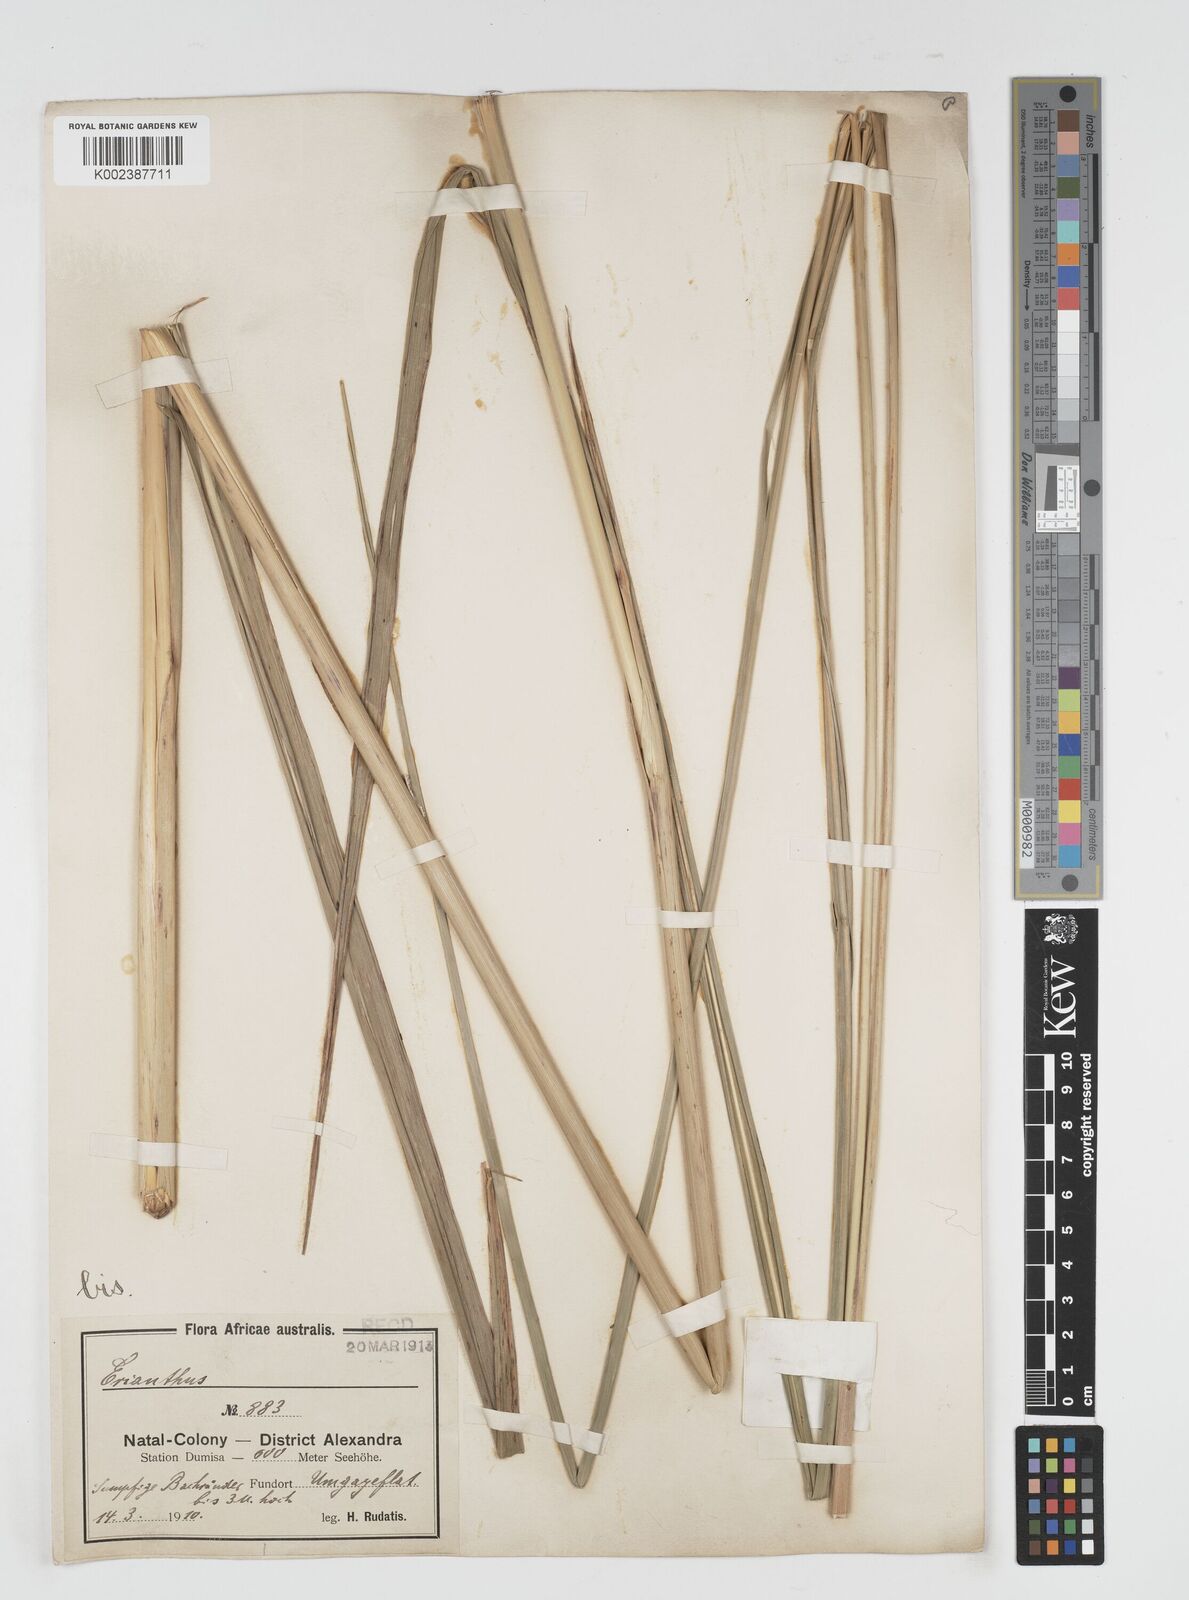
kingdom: Plantae
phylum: Tracheophyta
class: Liliopsida
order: Poales
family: Poaceae
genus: Miscanthus
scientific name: Miscanthus ecklonii
